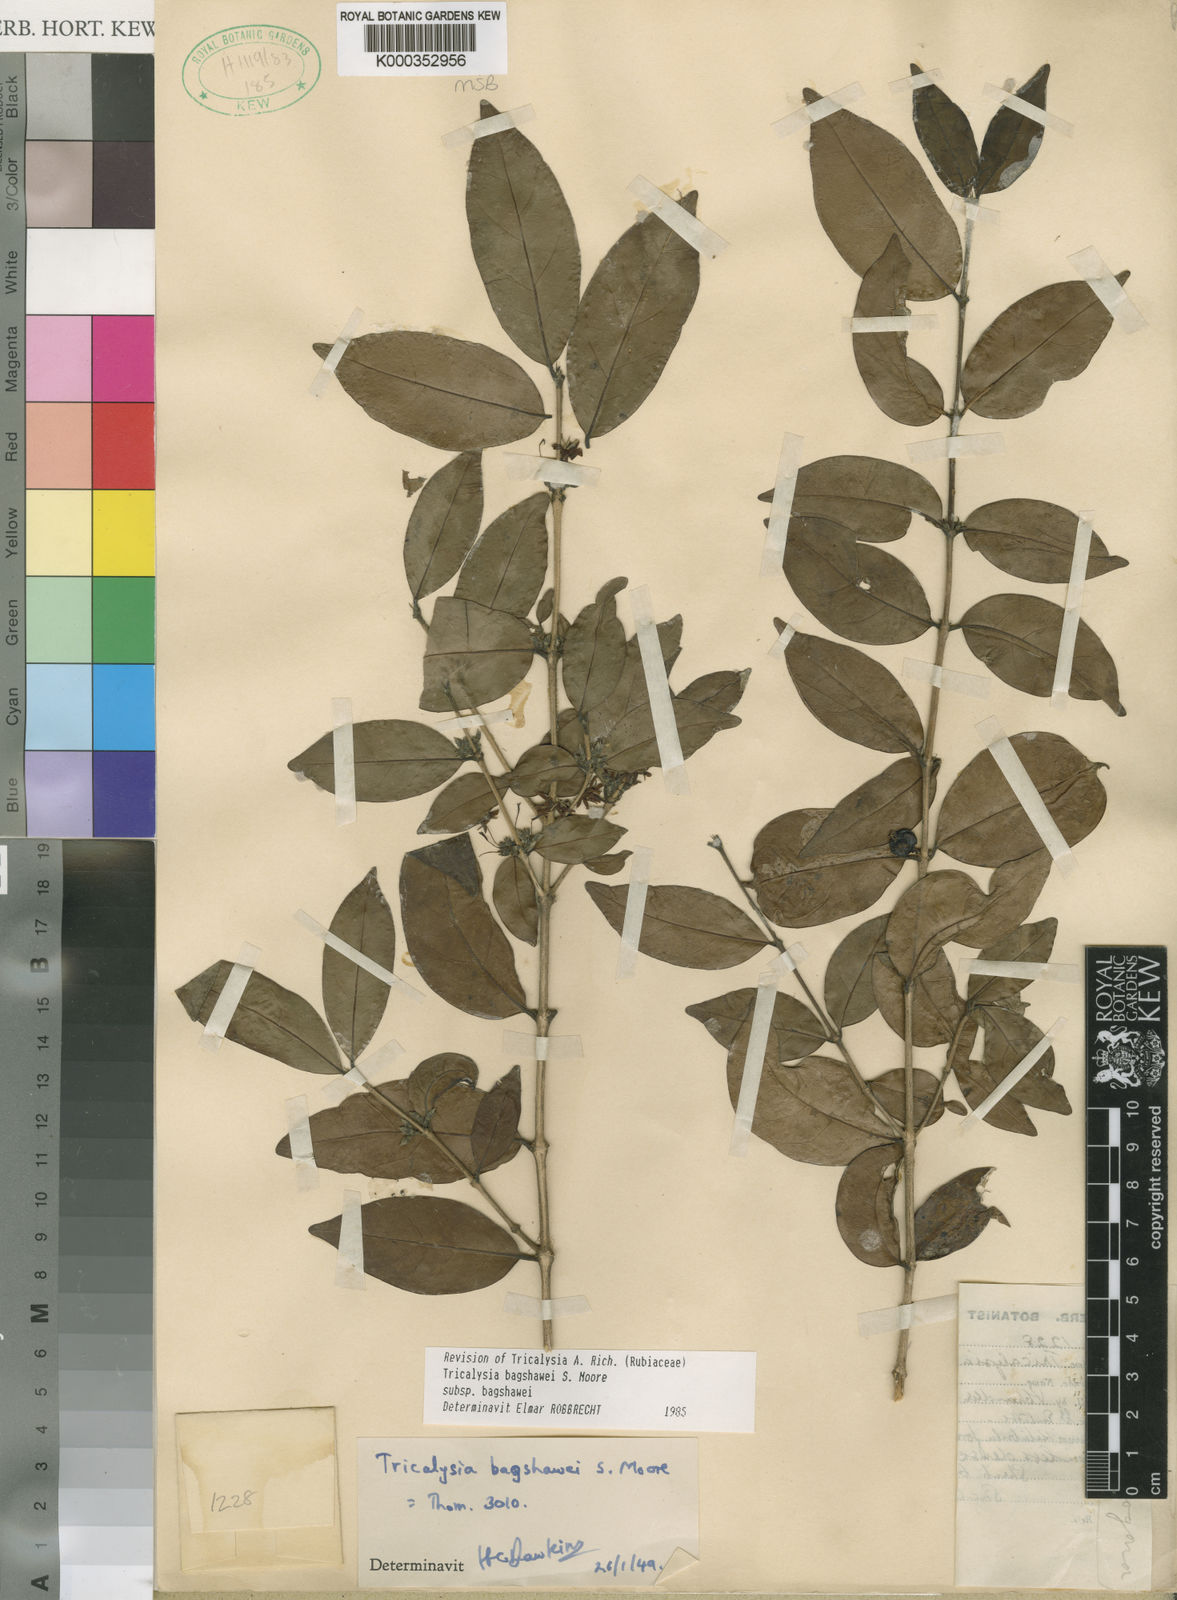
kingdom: Plantae
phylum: Tracheophyta
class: Magnoliopsida
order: Gentianales
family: Rubiaceae
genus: Tricalysia
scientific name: Tricalysia bagshawei
